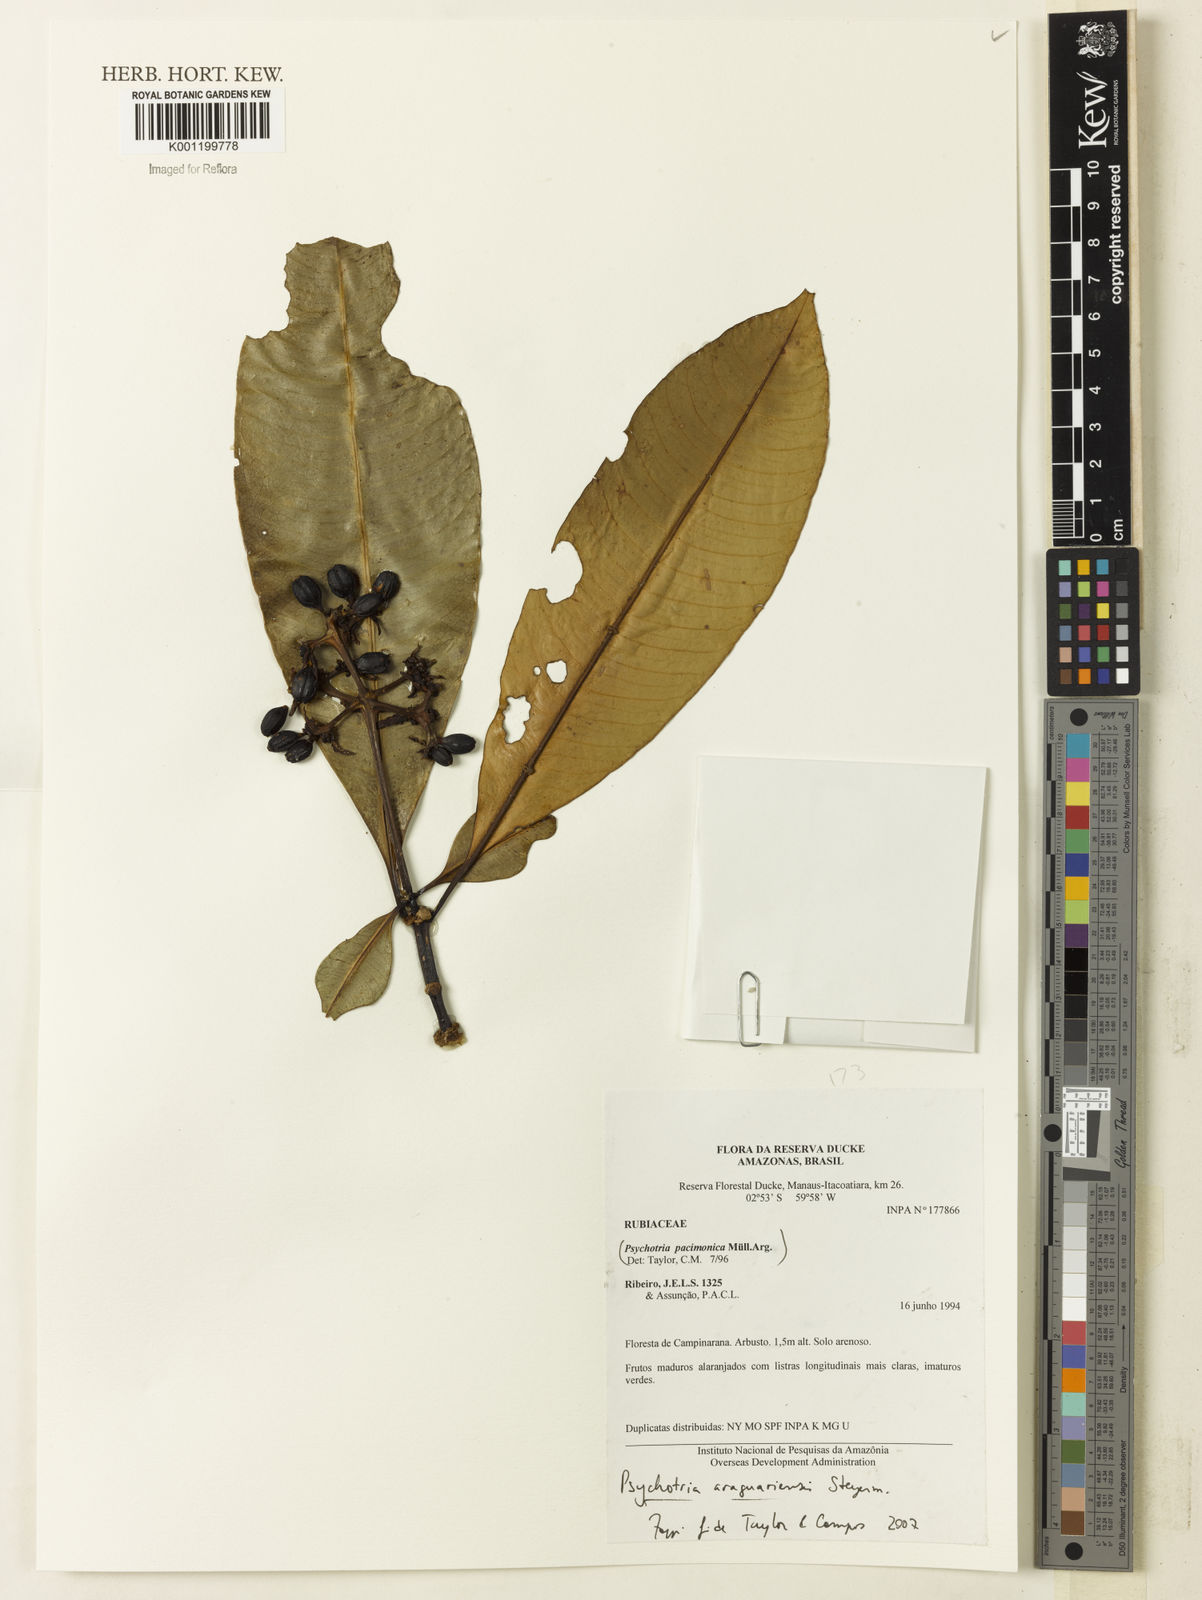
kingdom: Plantae
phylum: Tracheophyta
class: Magnoliopsida
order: Gentianales
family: Rubiaceae
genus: Carapichea
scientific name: Carapichea araguariensis
